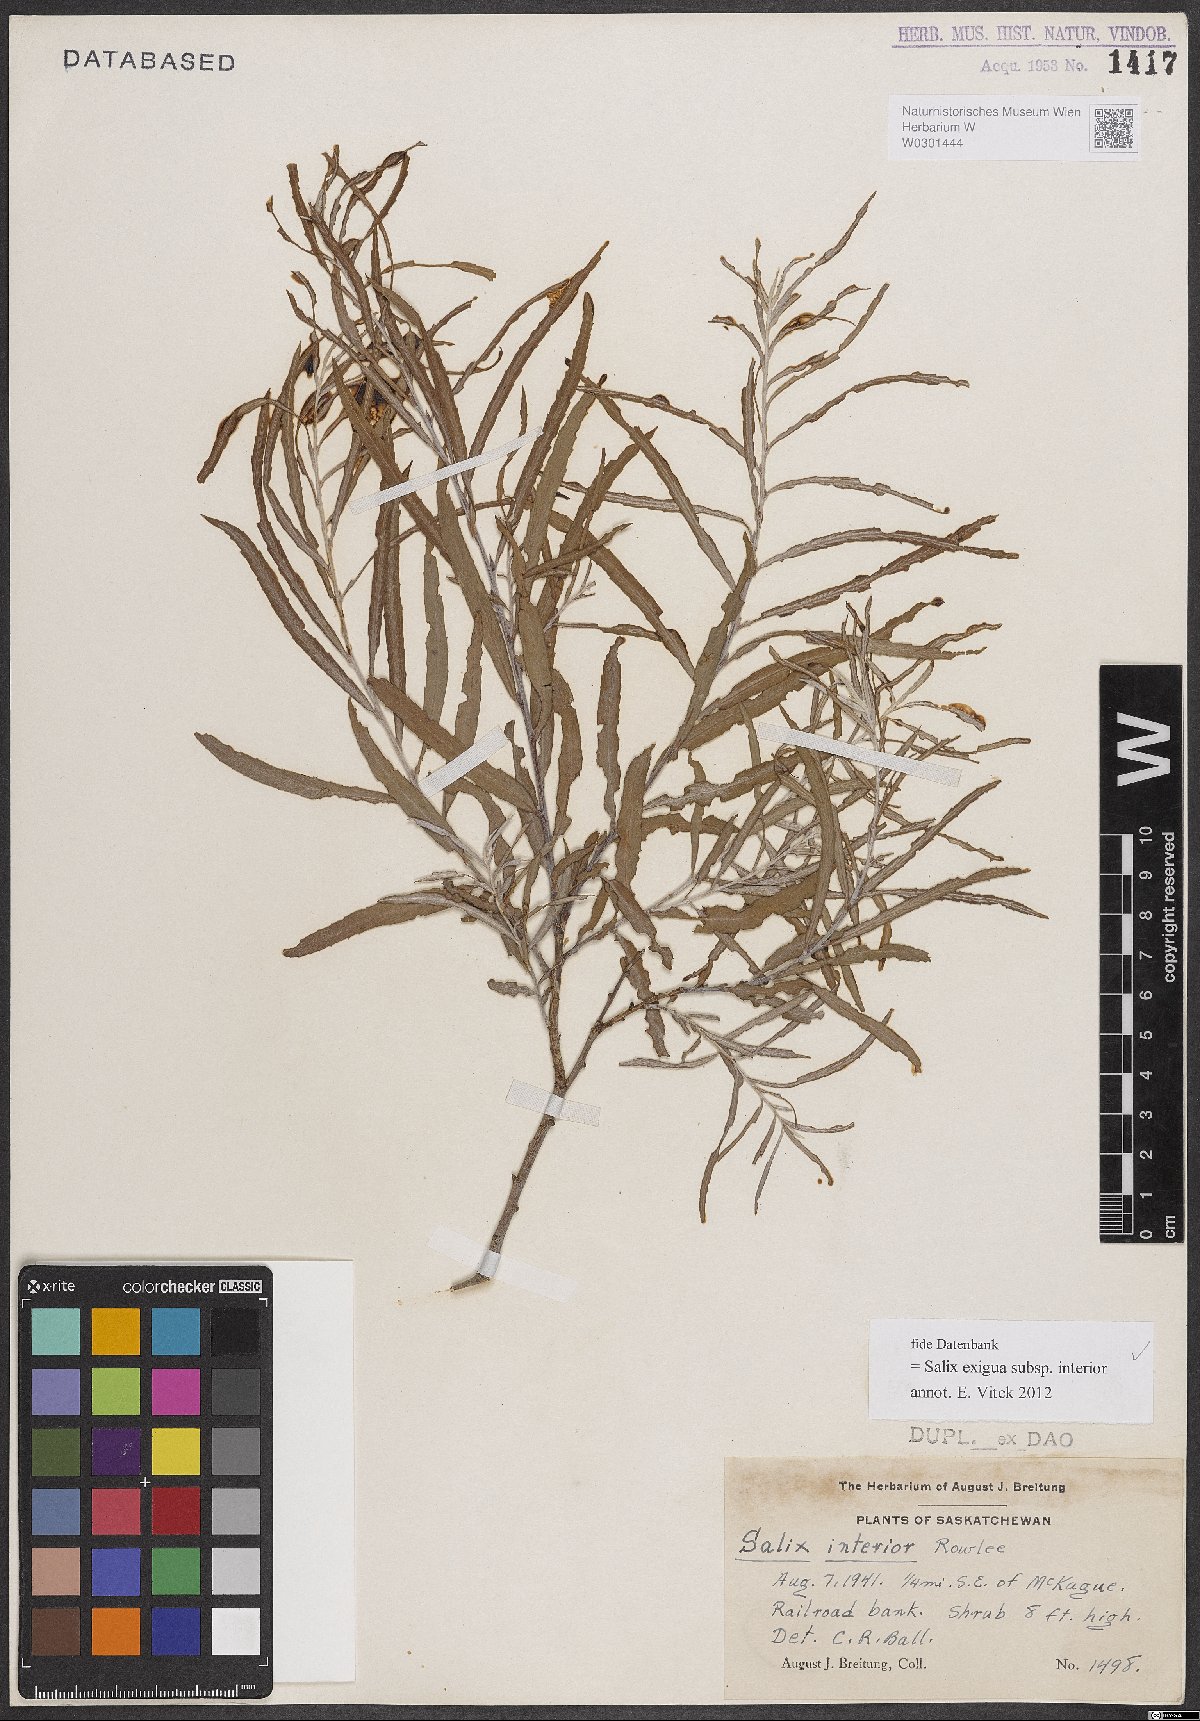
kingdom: Plantae
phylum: Tracheophyta
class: Magnoliopsida
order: Malpighiales
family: Salicaceae
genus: Salix
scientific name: Salix interior
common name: Sandbar willow
